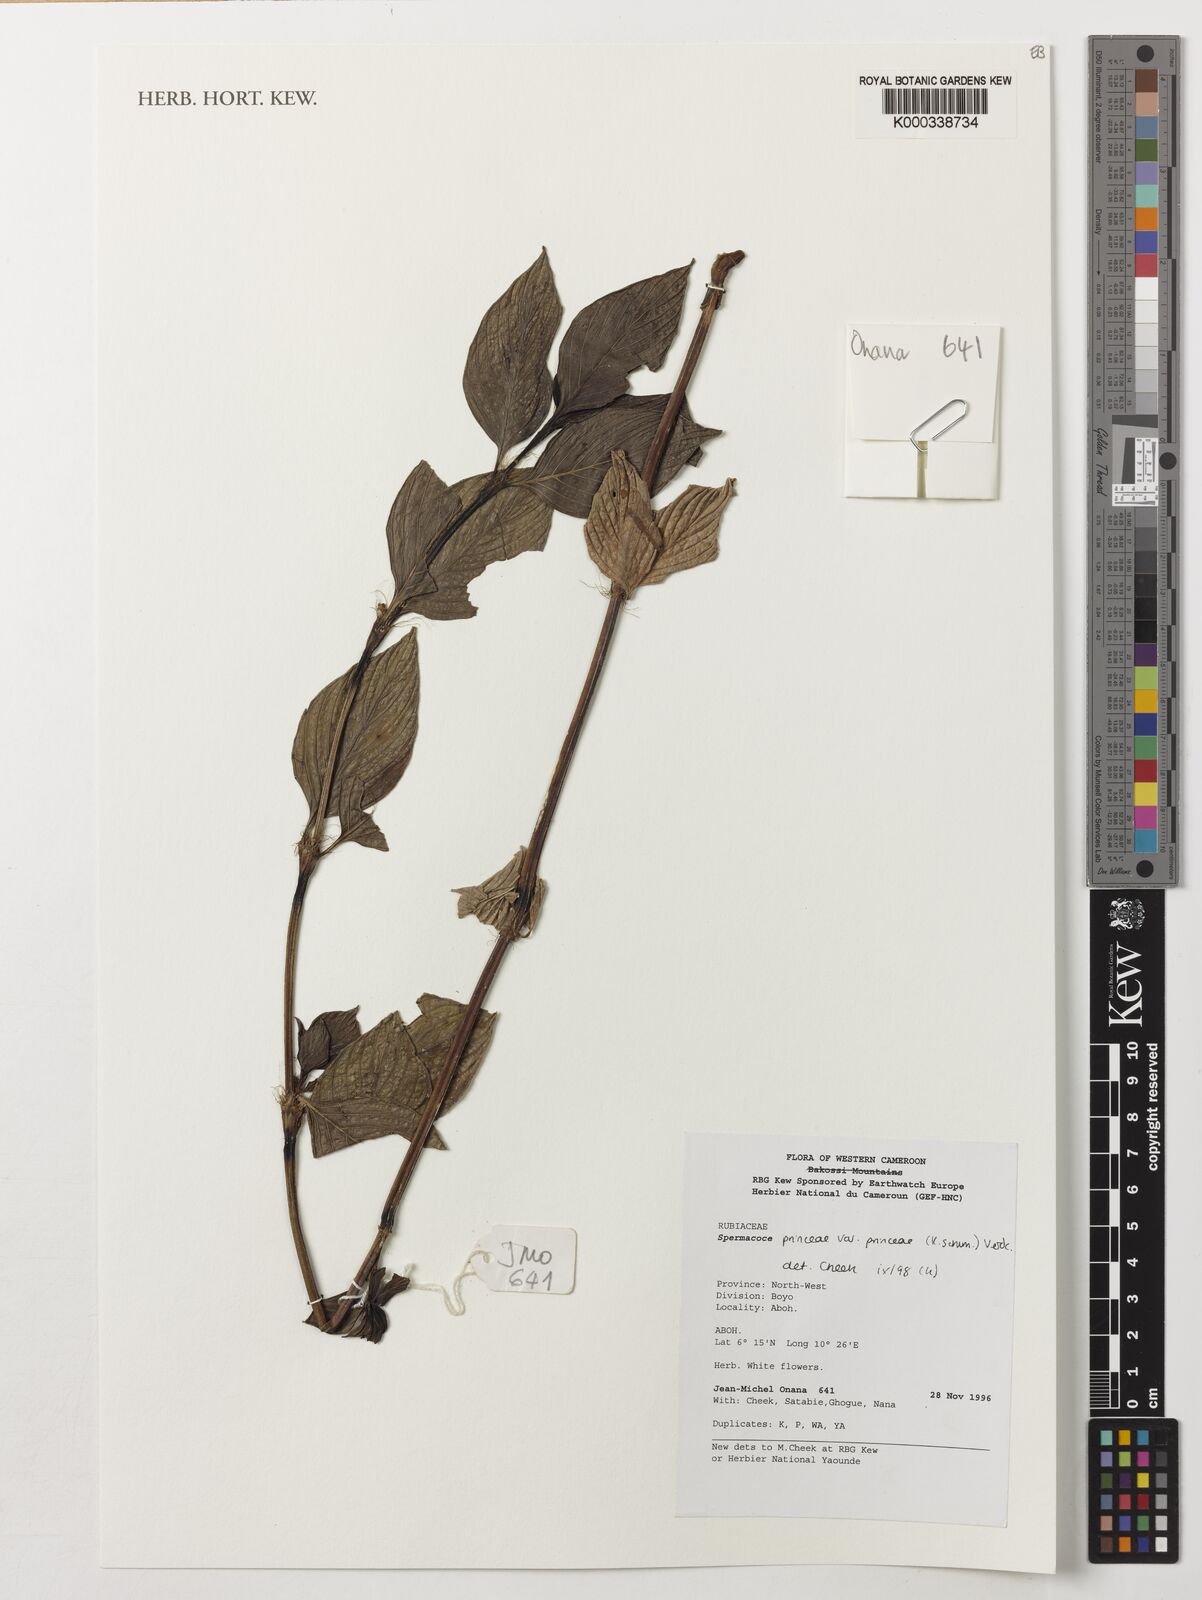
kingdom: Plantae
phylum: Tracheophyta
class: Magnoliopsida
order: Gentianales
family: Rubiaceae
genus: Spermacoce
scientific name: Spermacoce princeae
